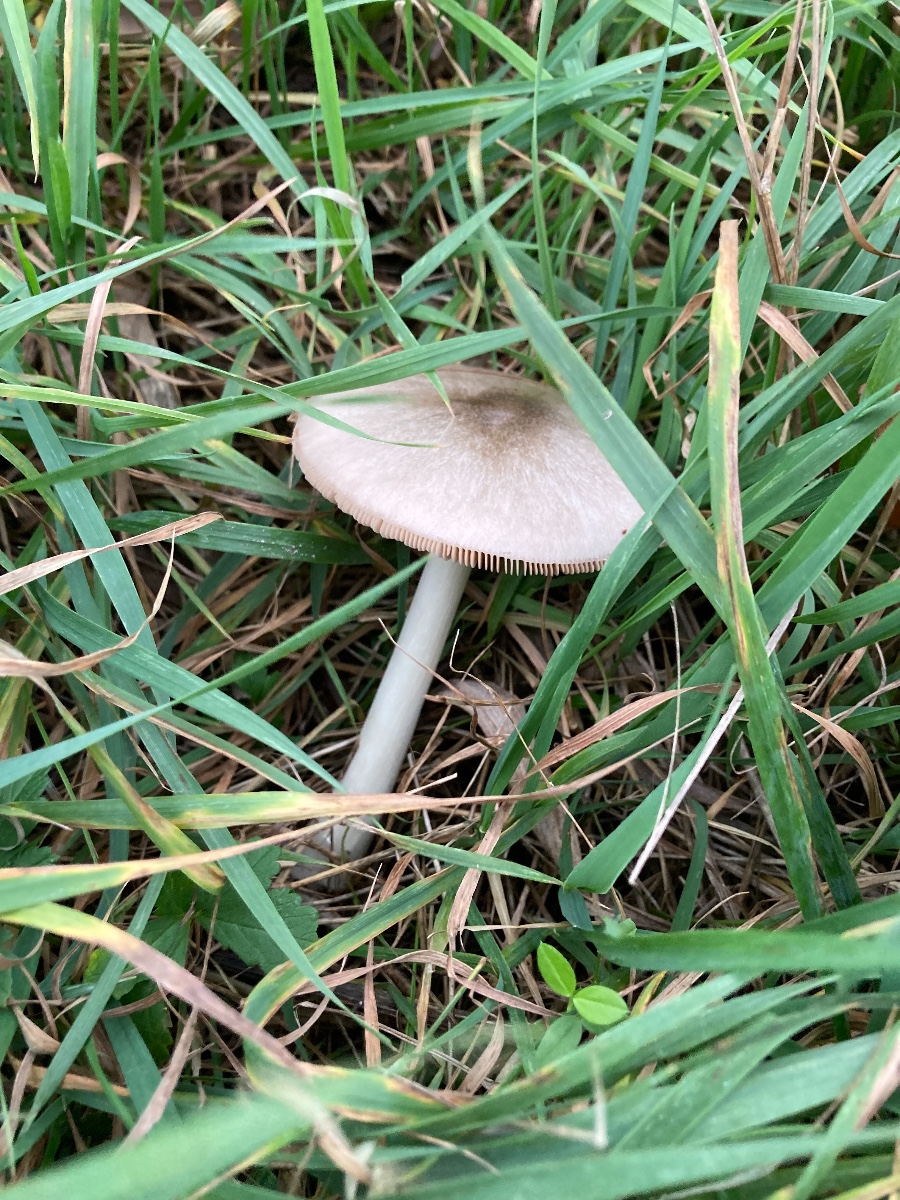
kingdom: Fungi
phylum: Basidiomycota
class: Agaricomycetes
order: Agaricales
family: Pluteaceae
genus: Volvopluteus
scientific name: Volvopluteus gloiocephalus
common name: høj posesvamp
